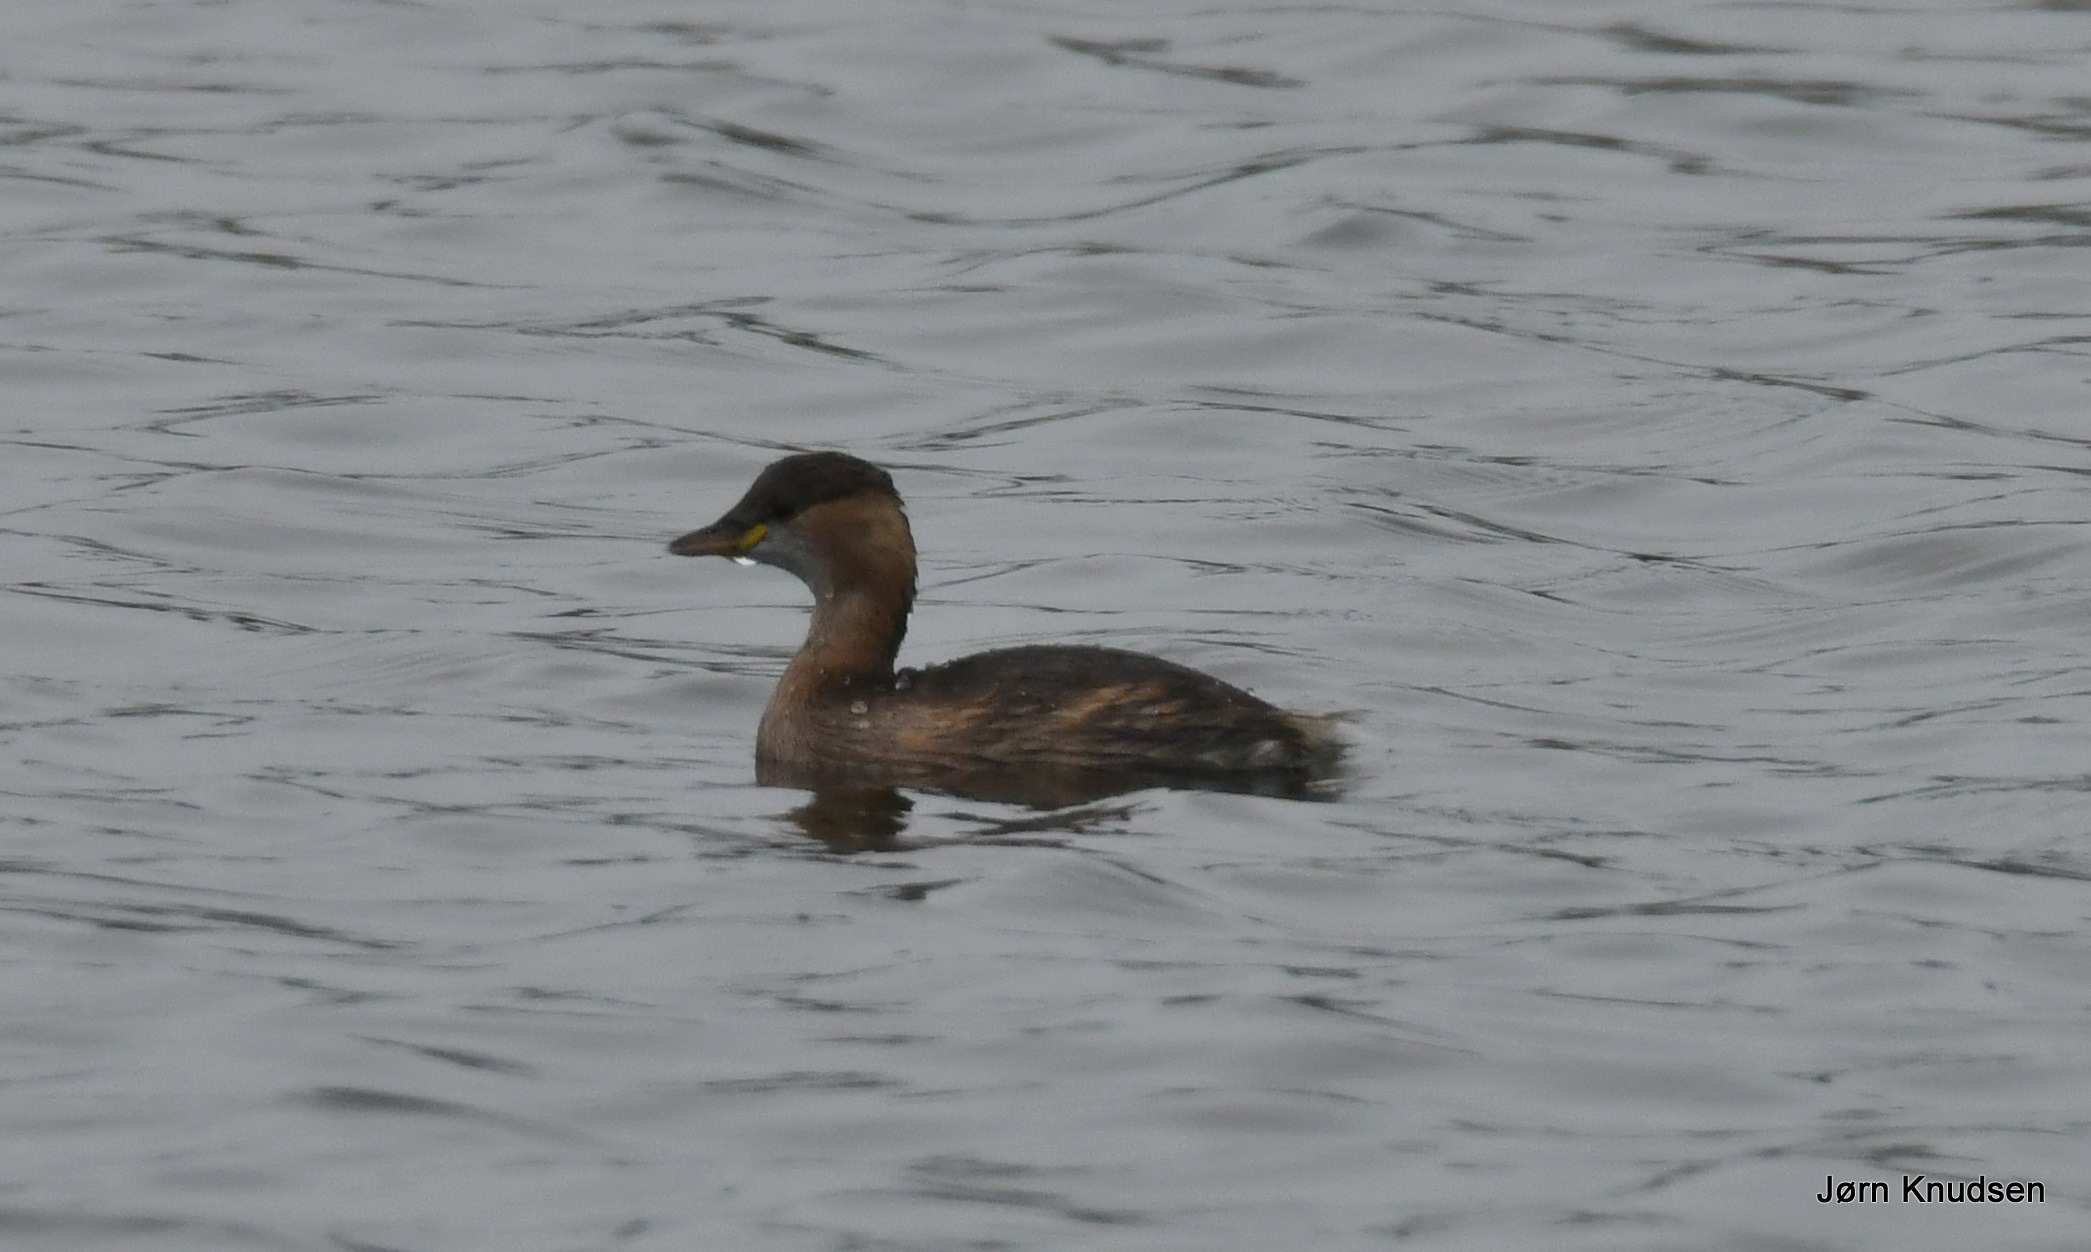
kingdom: Animalia
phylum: Chordata
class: Aves
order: Podicipediformes
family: Podicipedidae
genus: Tachybaptus
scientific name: Tachybaptus ruficollis
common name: Lille lappedykker
